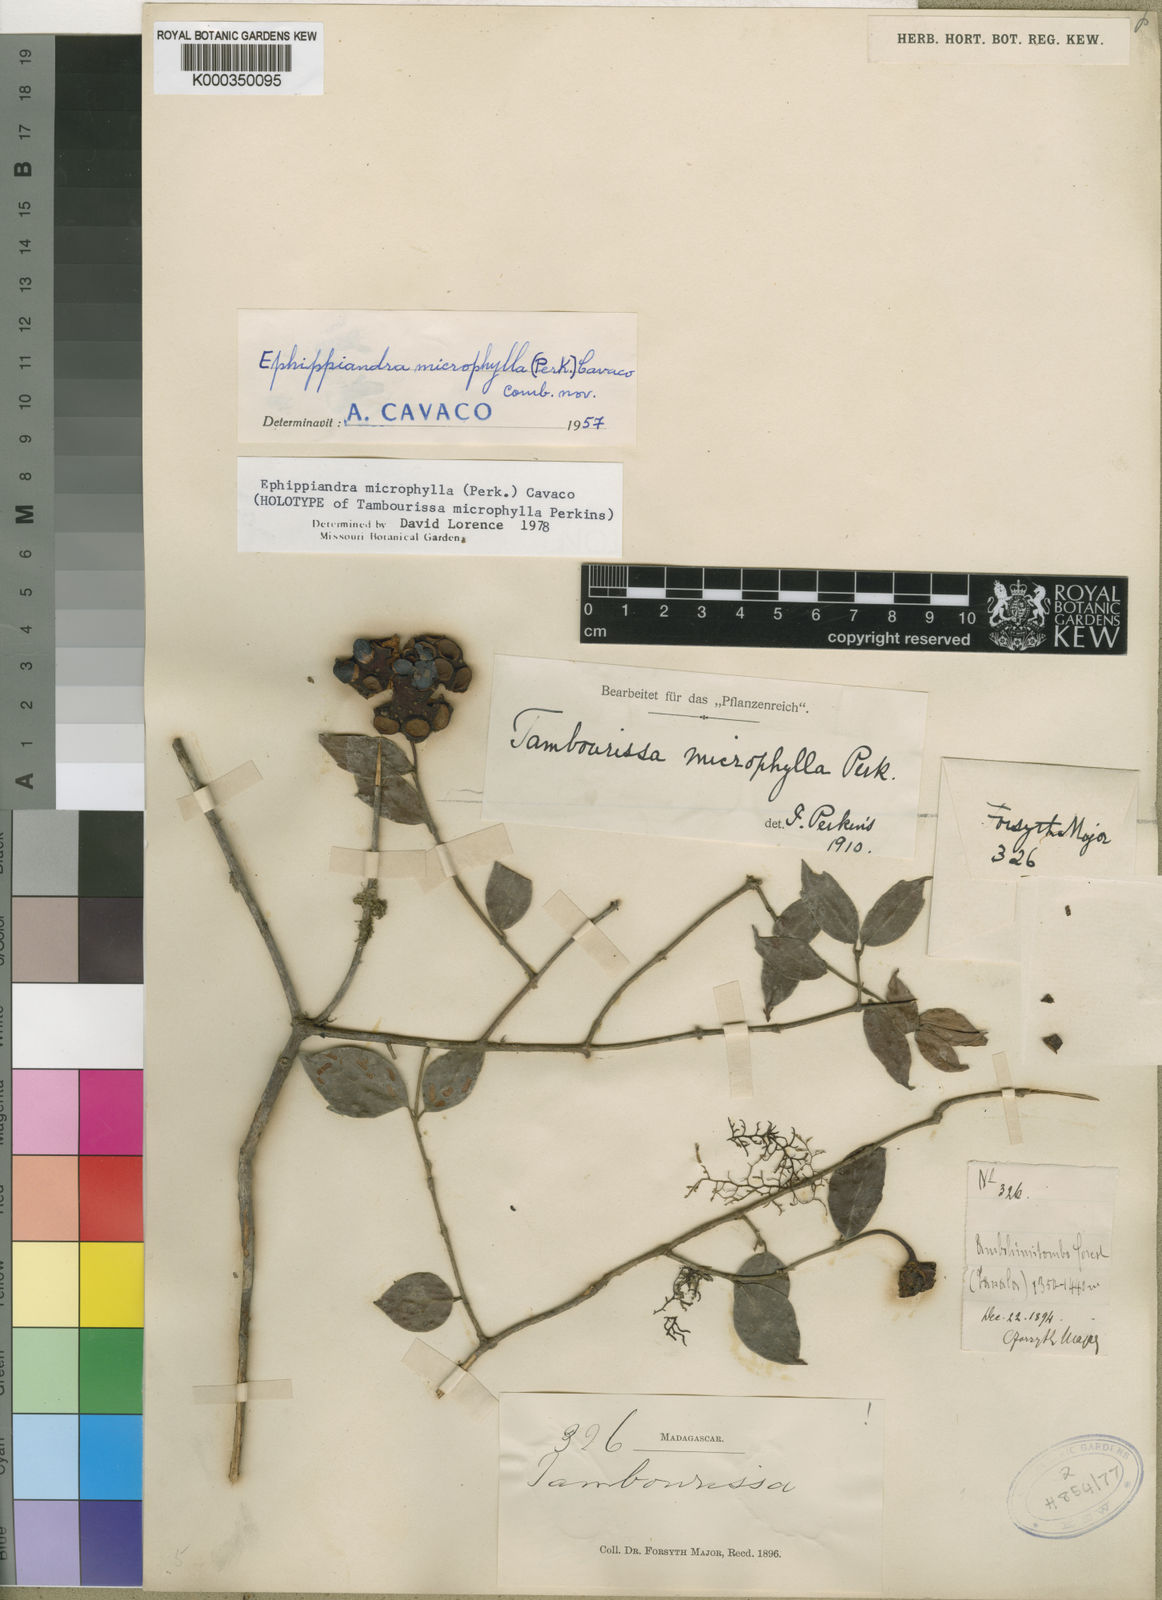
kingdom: Plantae
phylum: Tracheophyta
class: Magnoliopsida
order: Laurales
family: Monimiaceae
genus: Ephippiandra
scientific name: Ephippiandra myrtoidea
